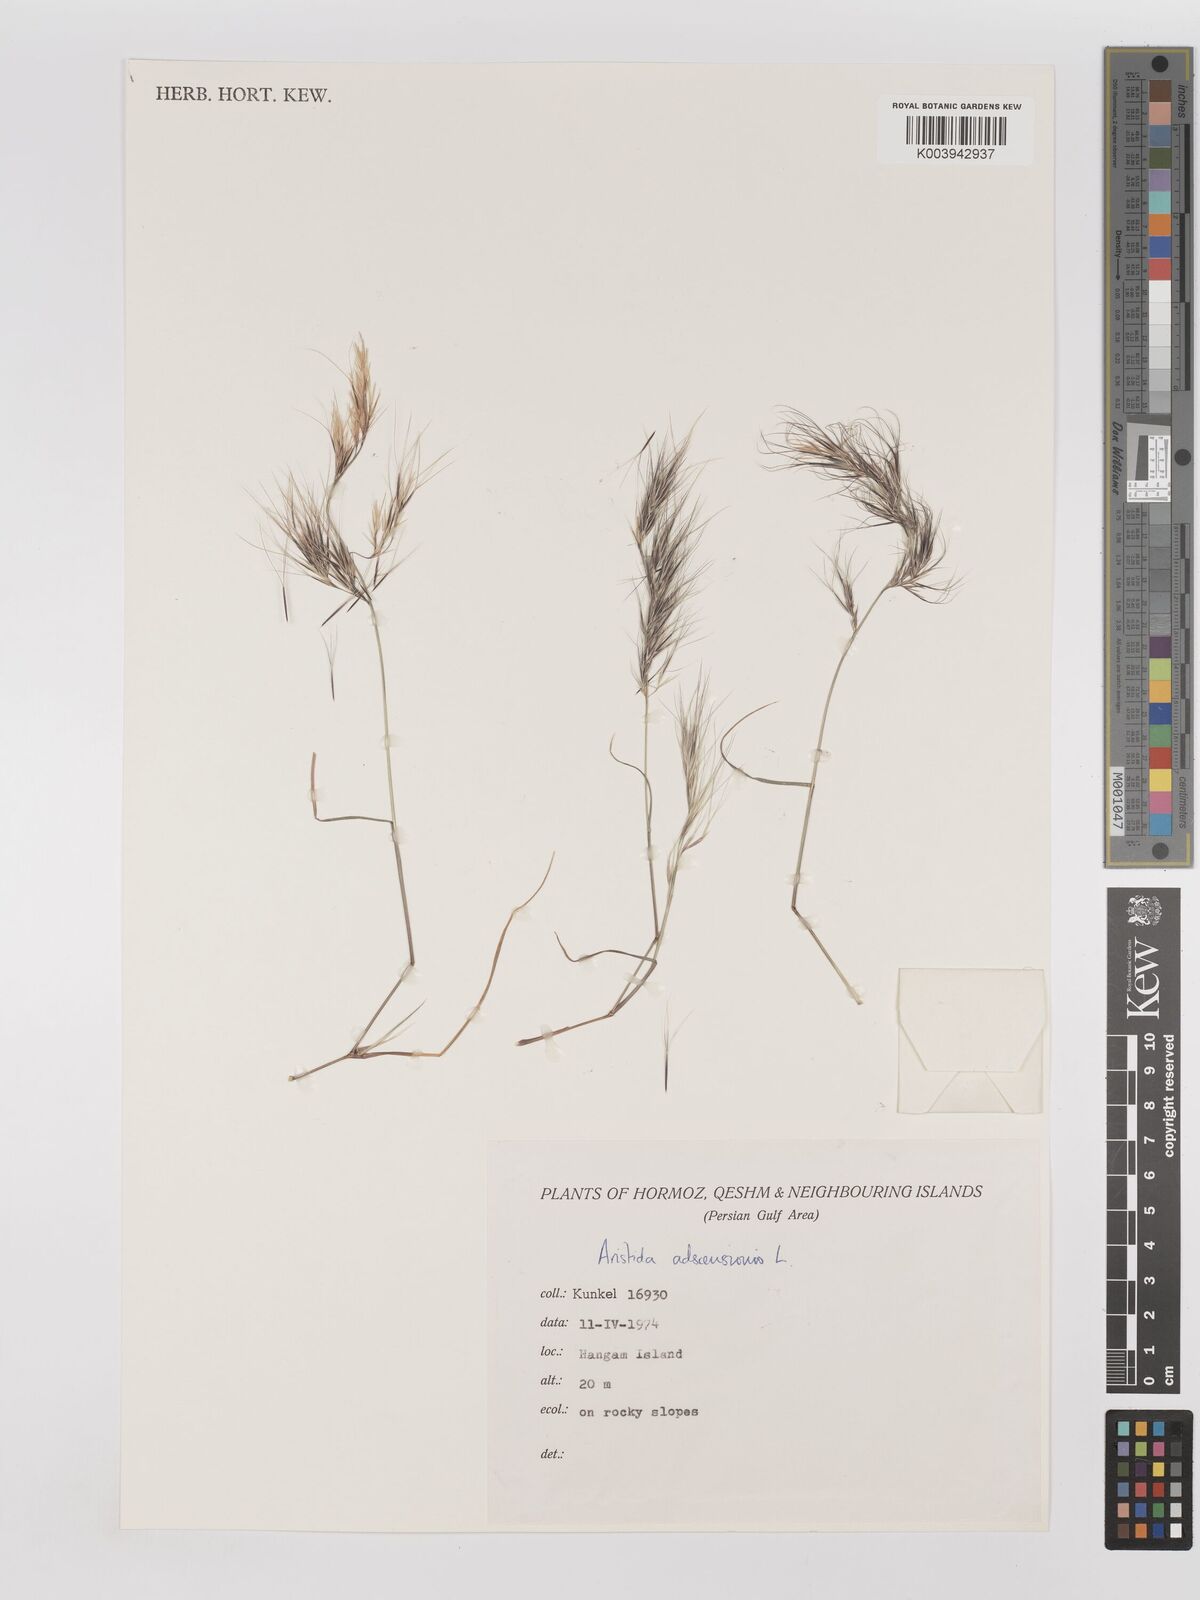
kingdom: Plantae
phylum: Tracheophyta
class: Liliopsida
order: Poales
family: Poaceae
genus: Aristida
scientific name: Aristida adscensionis
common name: Sixweeks threeawn
